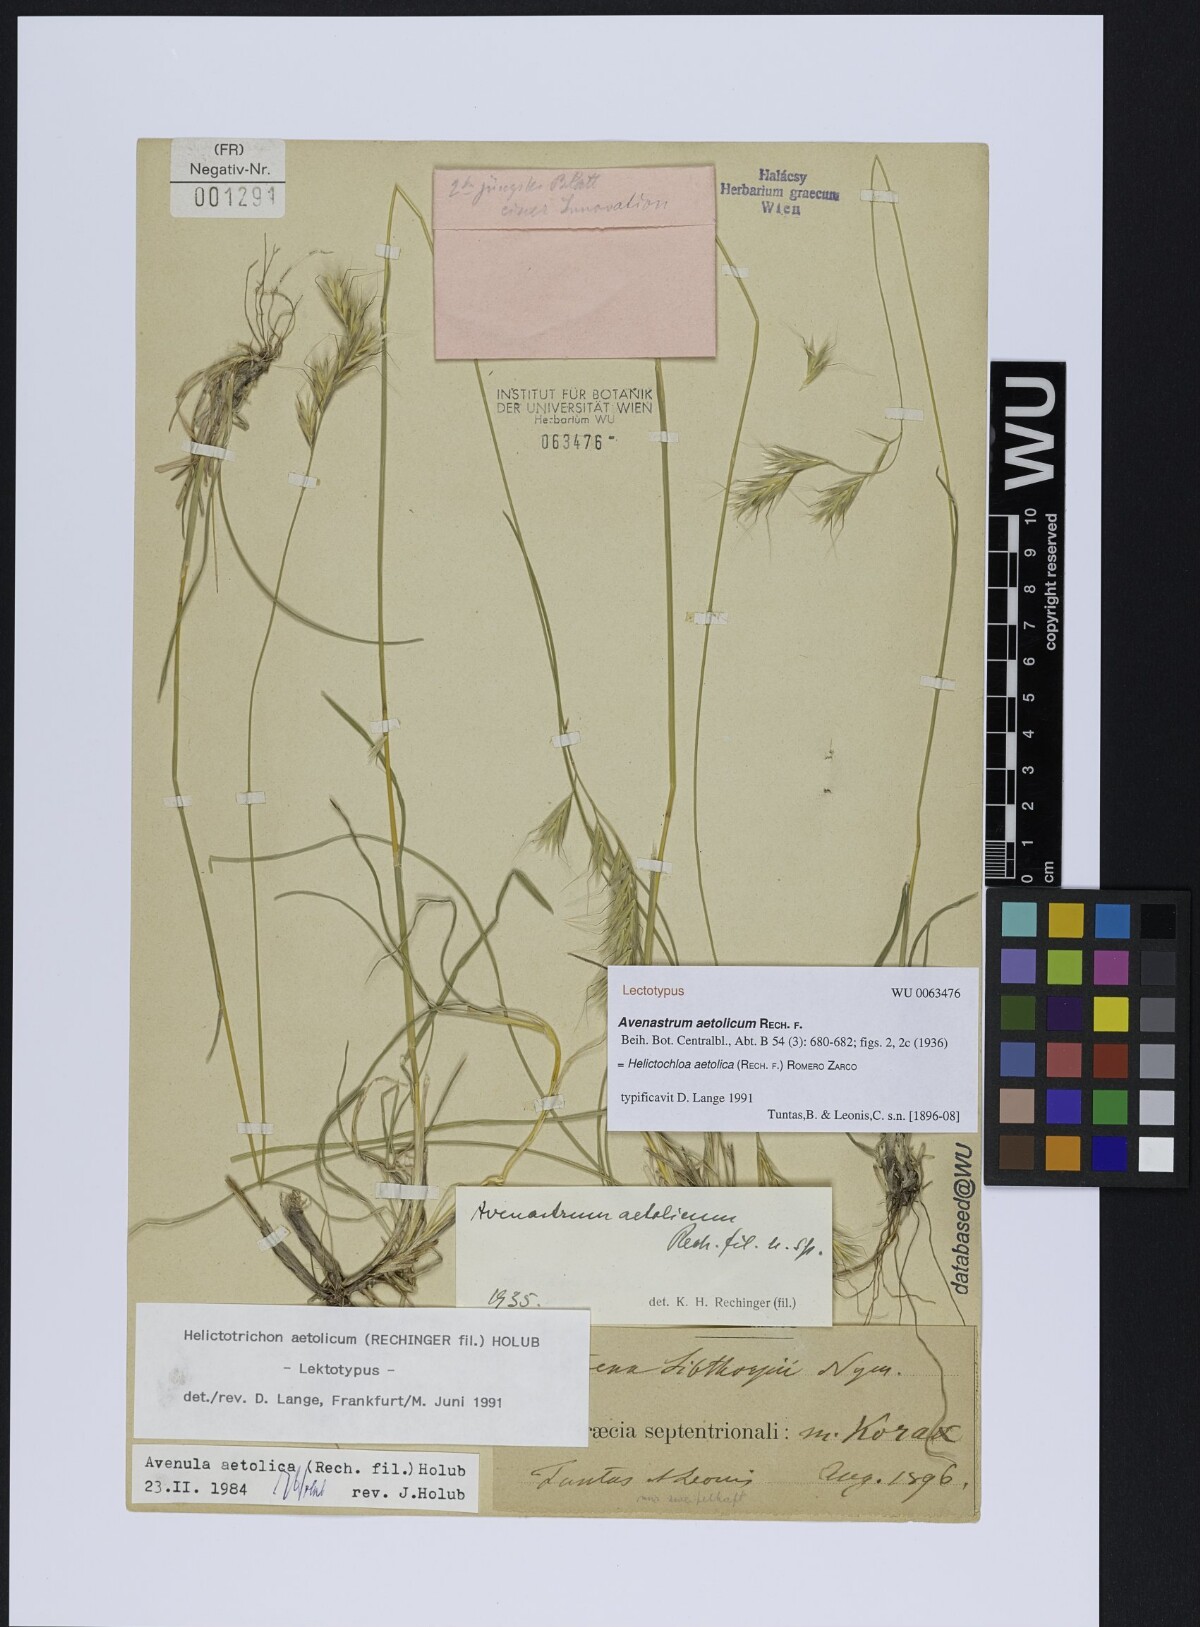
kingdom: Plantae
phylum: Tracheophyta
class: Liliopsida
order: Poales
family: Poaceae
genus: Helictochloa
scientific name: Helictochloa aetolica
